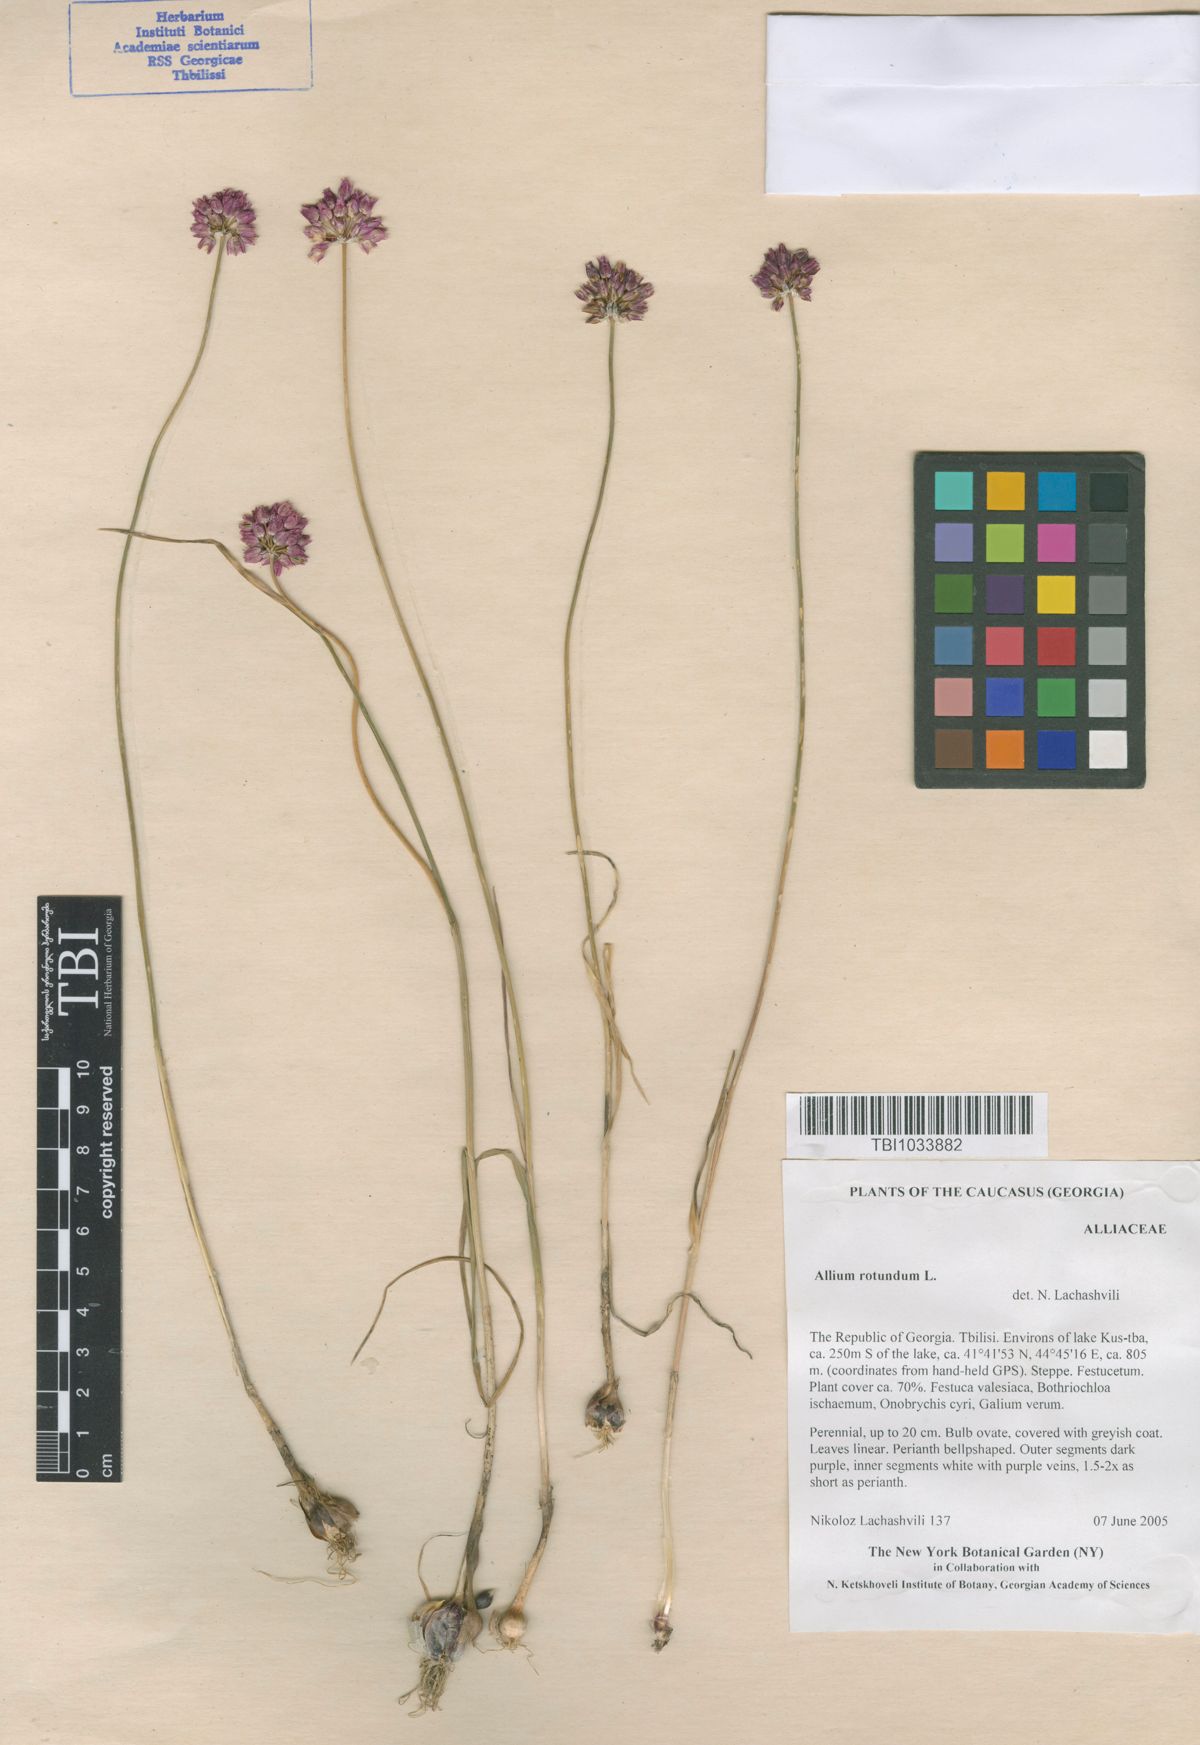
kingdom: Plantae
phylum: Tracheophyta
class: Liliopsida
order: Asparagales
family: Amaryllidaceae
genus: Allium
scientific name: Allium rotundum
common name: Sand leek
